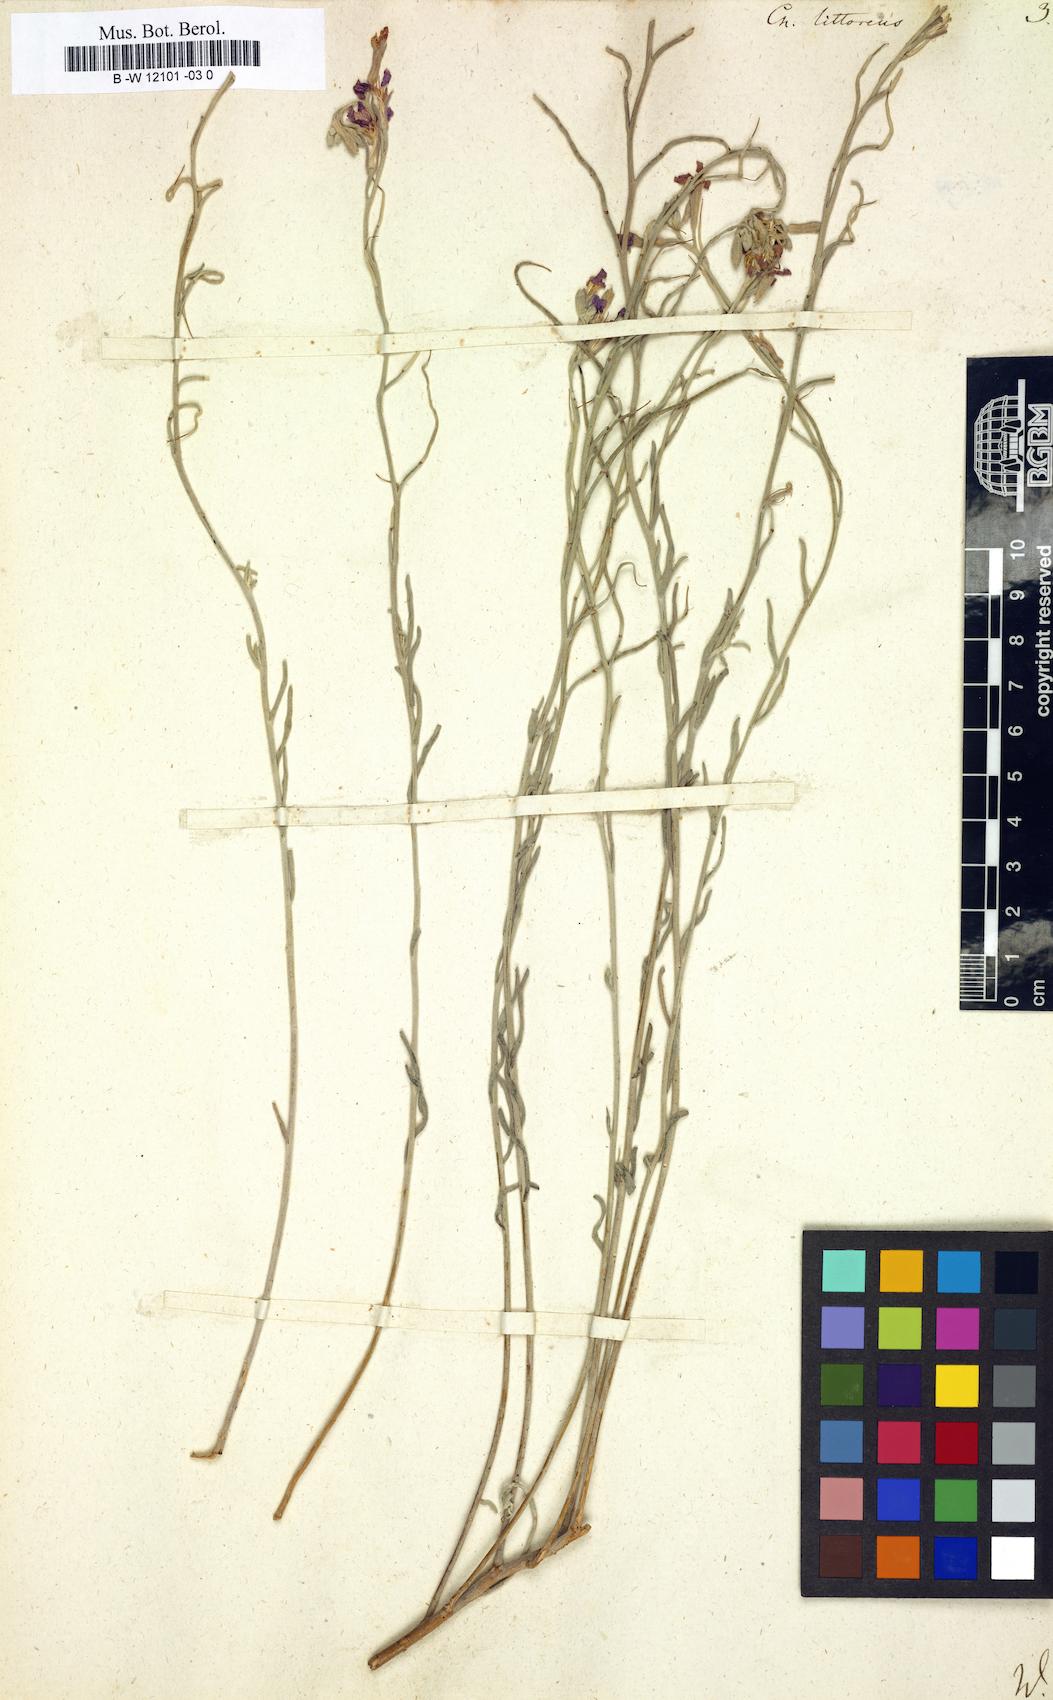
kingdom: Plantae
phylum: Tracheophyta
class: Magnoliopsida
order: Brassicales
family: Brassicaceae
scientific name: Brassicaceae
